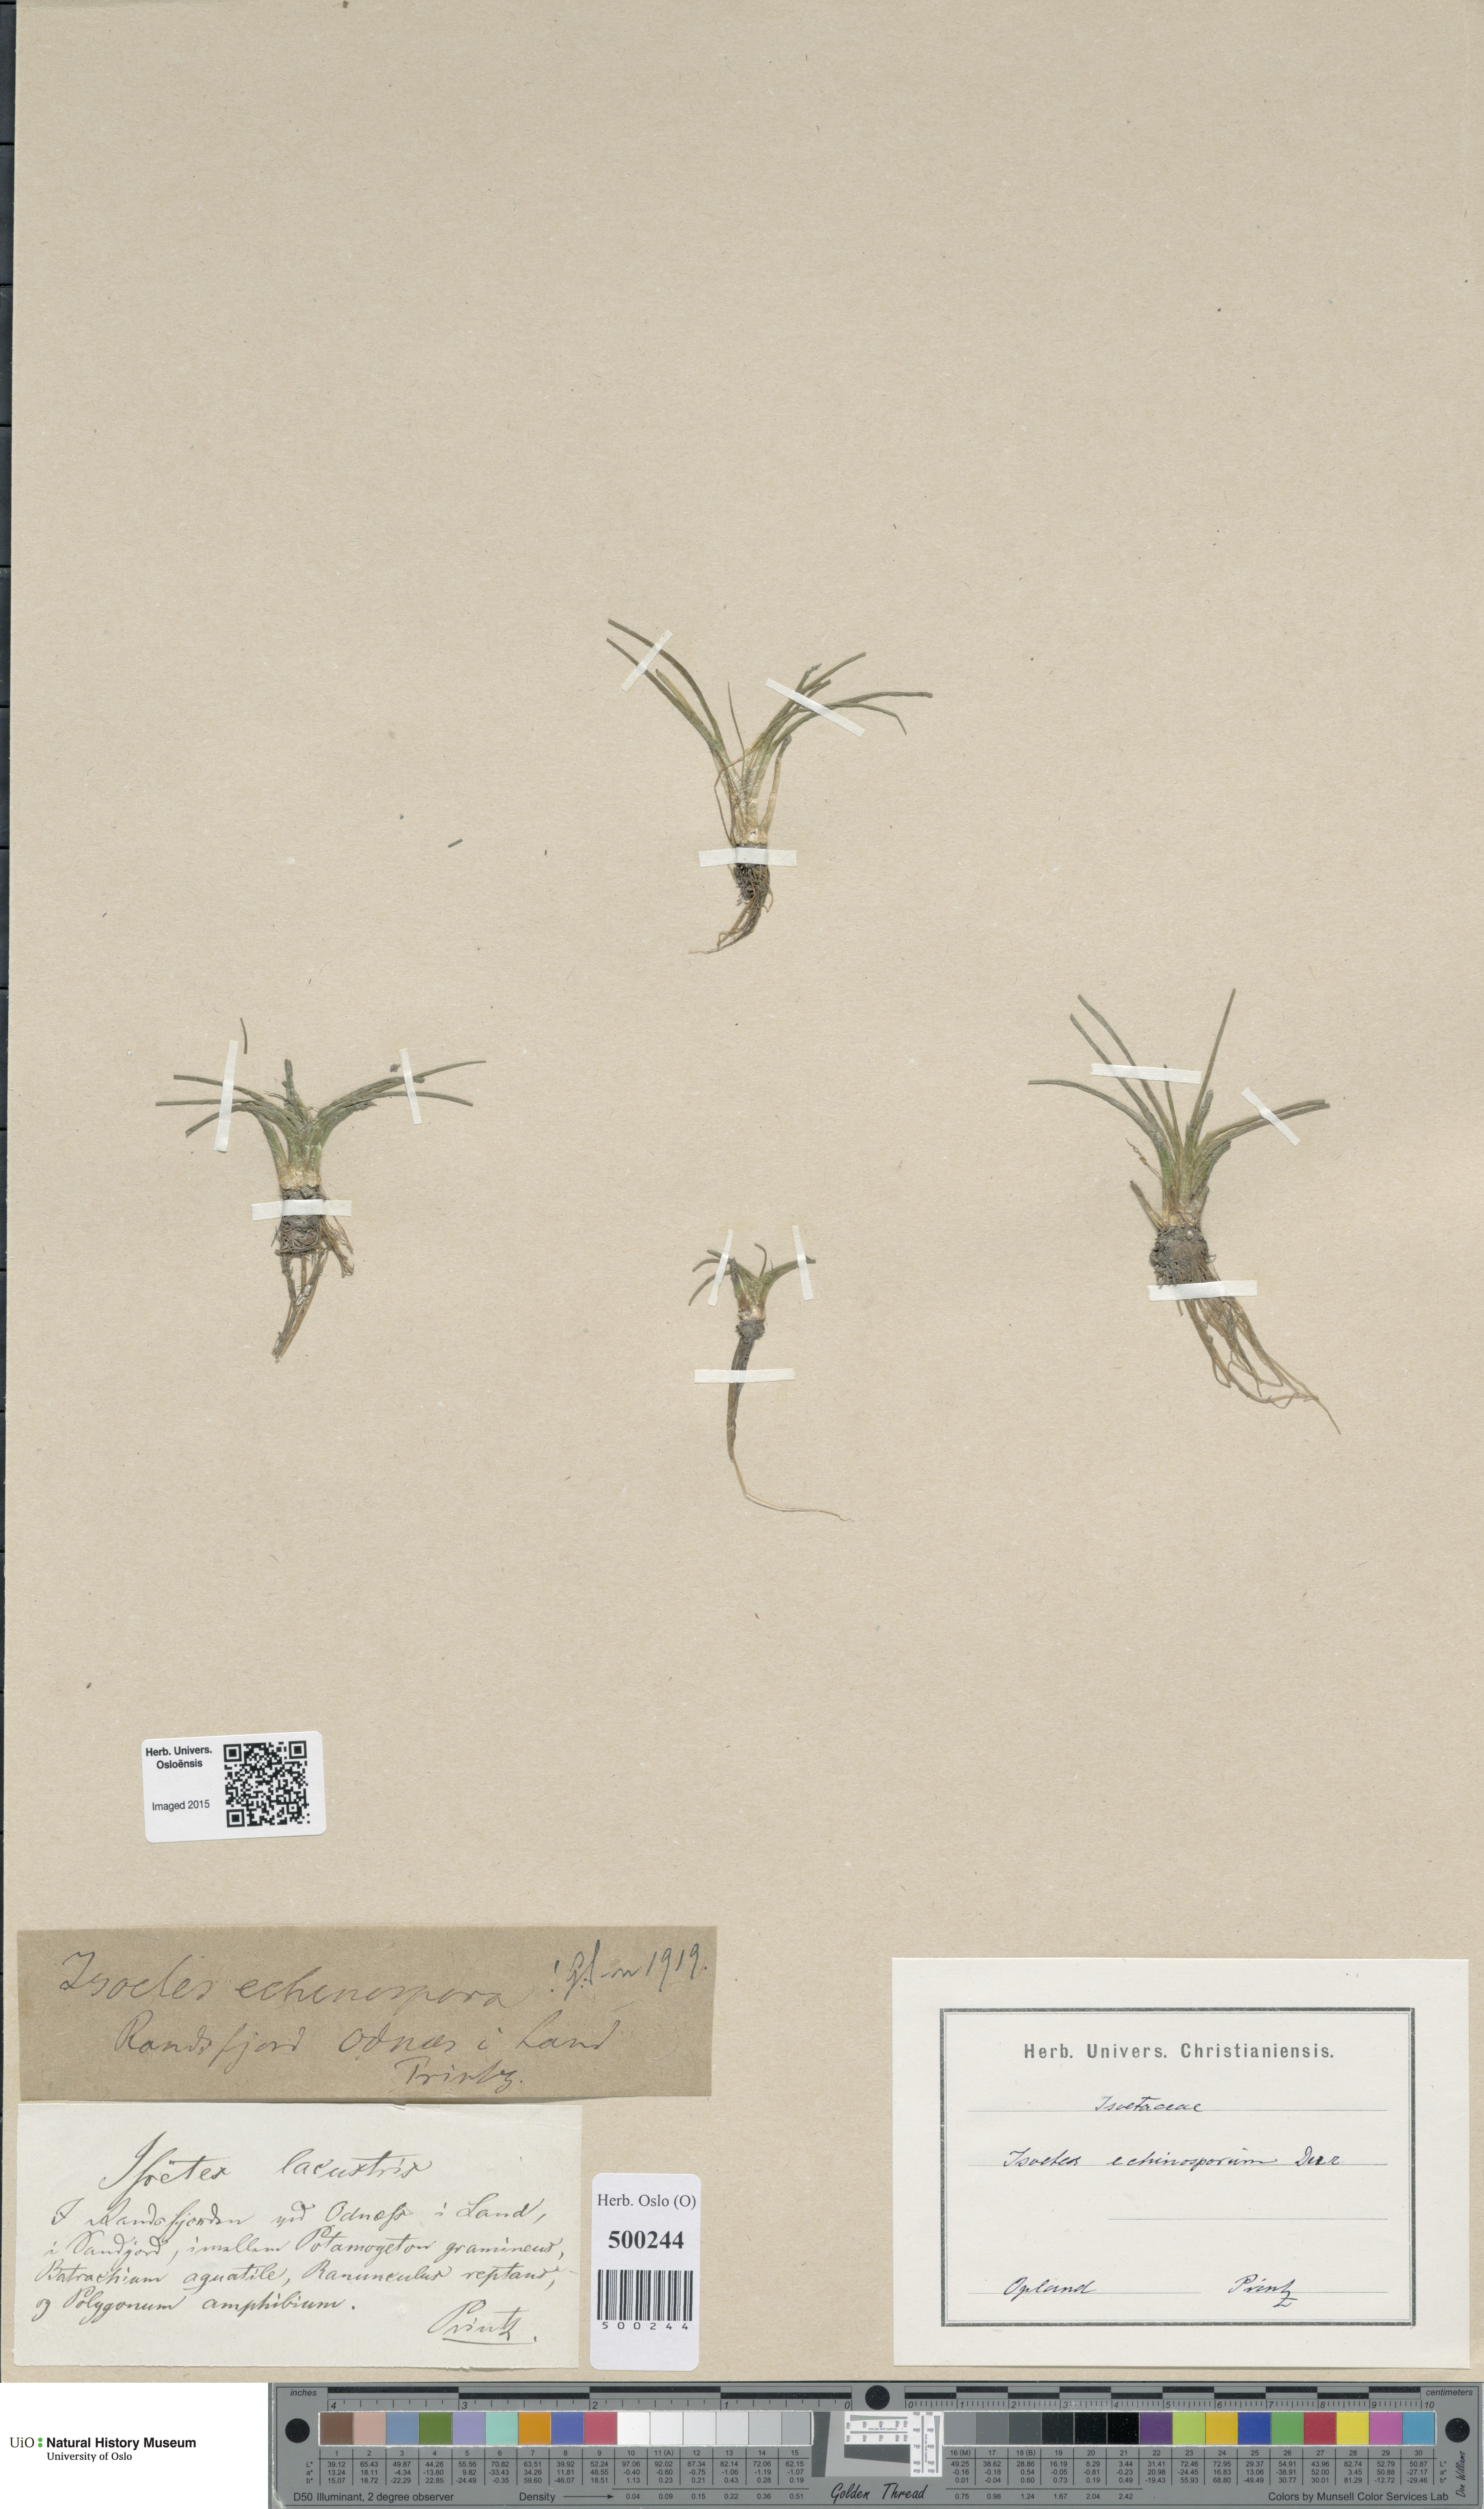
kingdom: Plantae
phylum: Tracheophyta
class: Lycopodiopsida
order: Isoetales
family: Isoetaceae
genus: Isoetes
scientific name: Isoetes echinospora
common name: Spring quillwort
